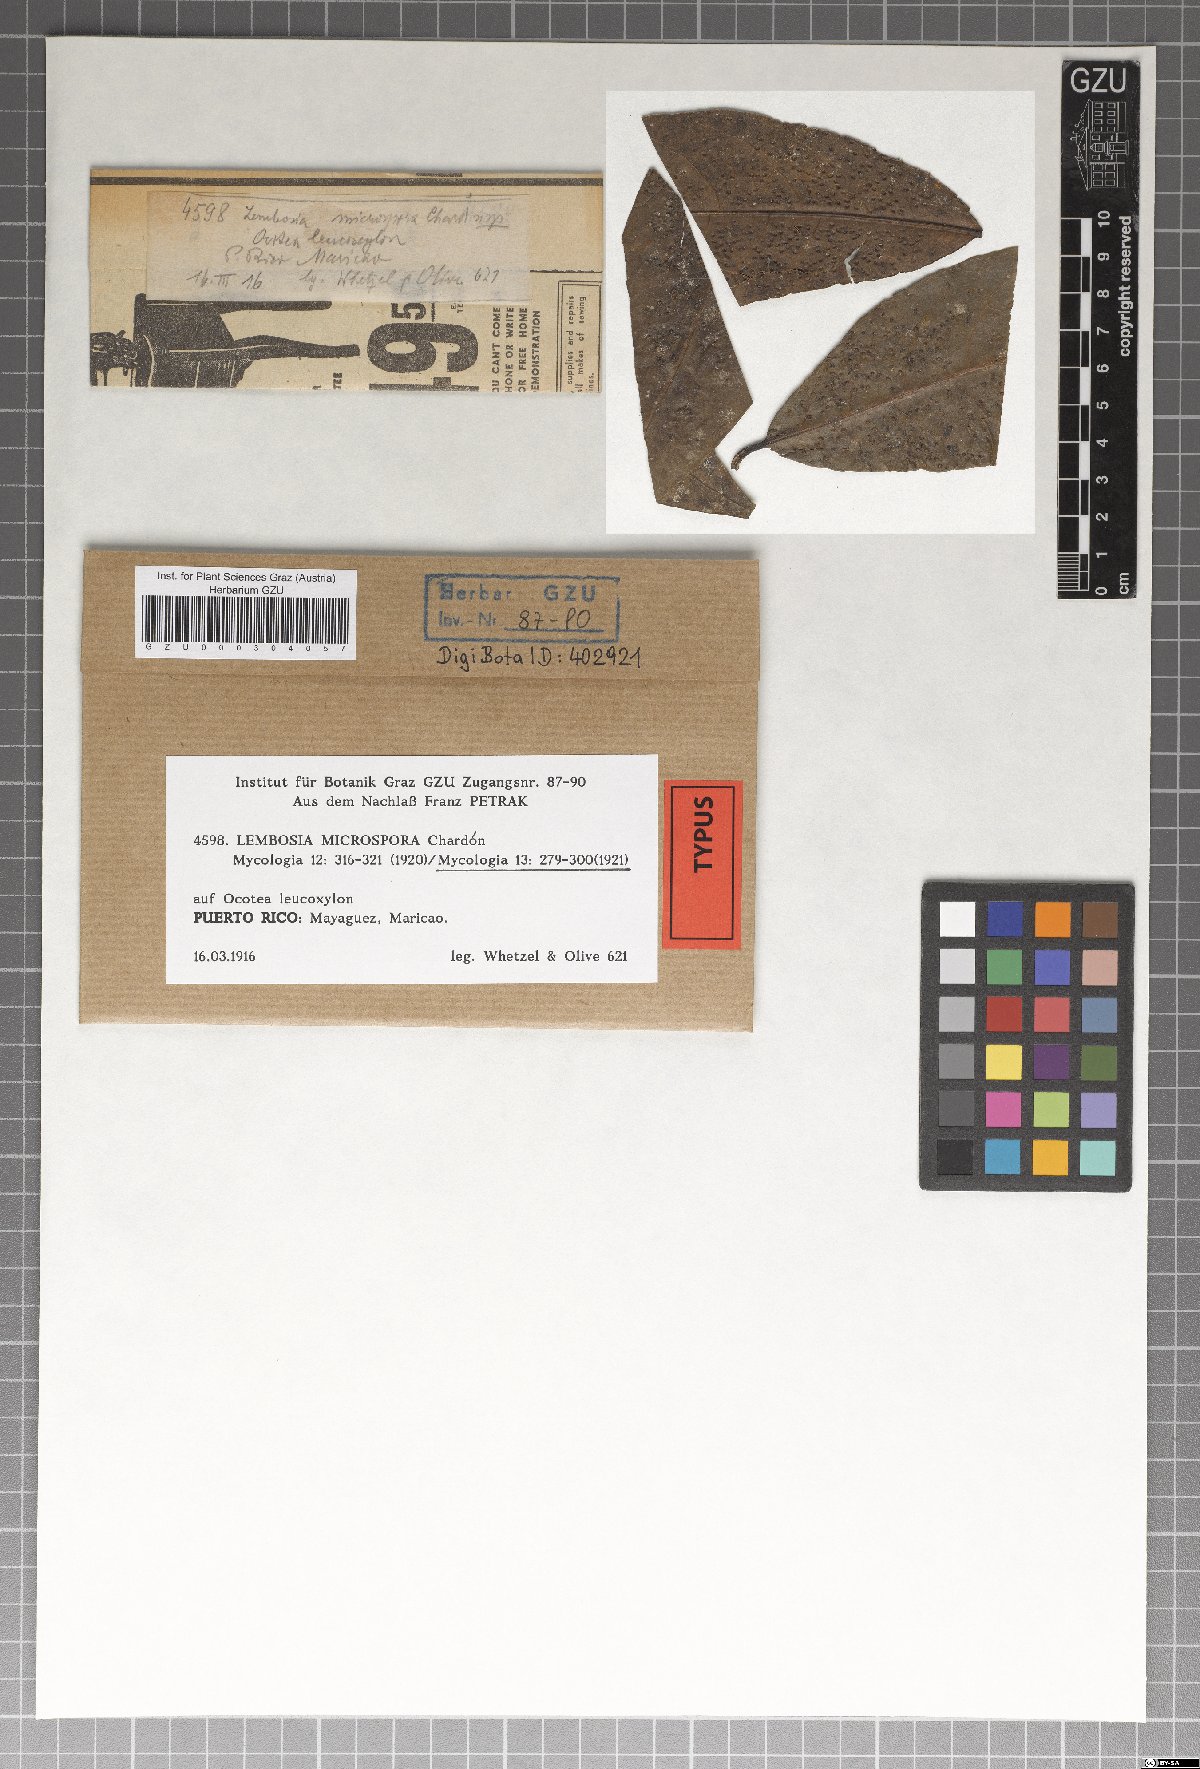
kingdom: Fungi
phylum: Ascomycota
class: Dothideomycetes
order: Asterinales
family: Asterinaceae
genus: Echidnodes
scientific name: Echidnodes microspora
